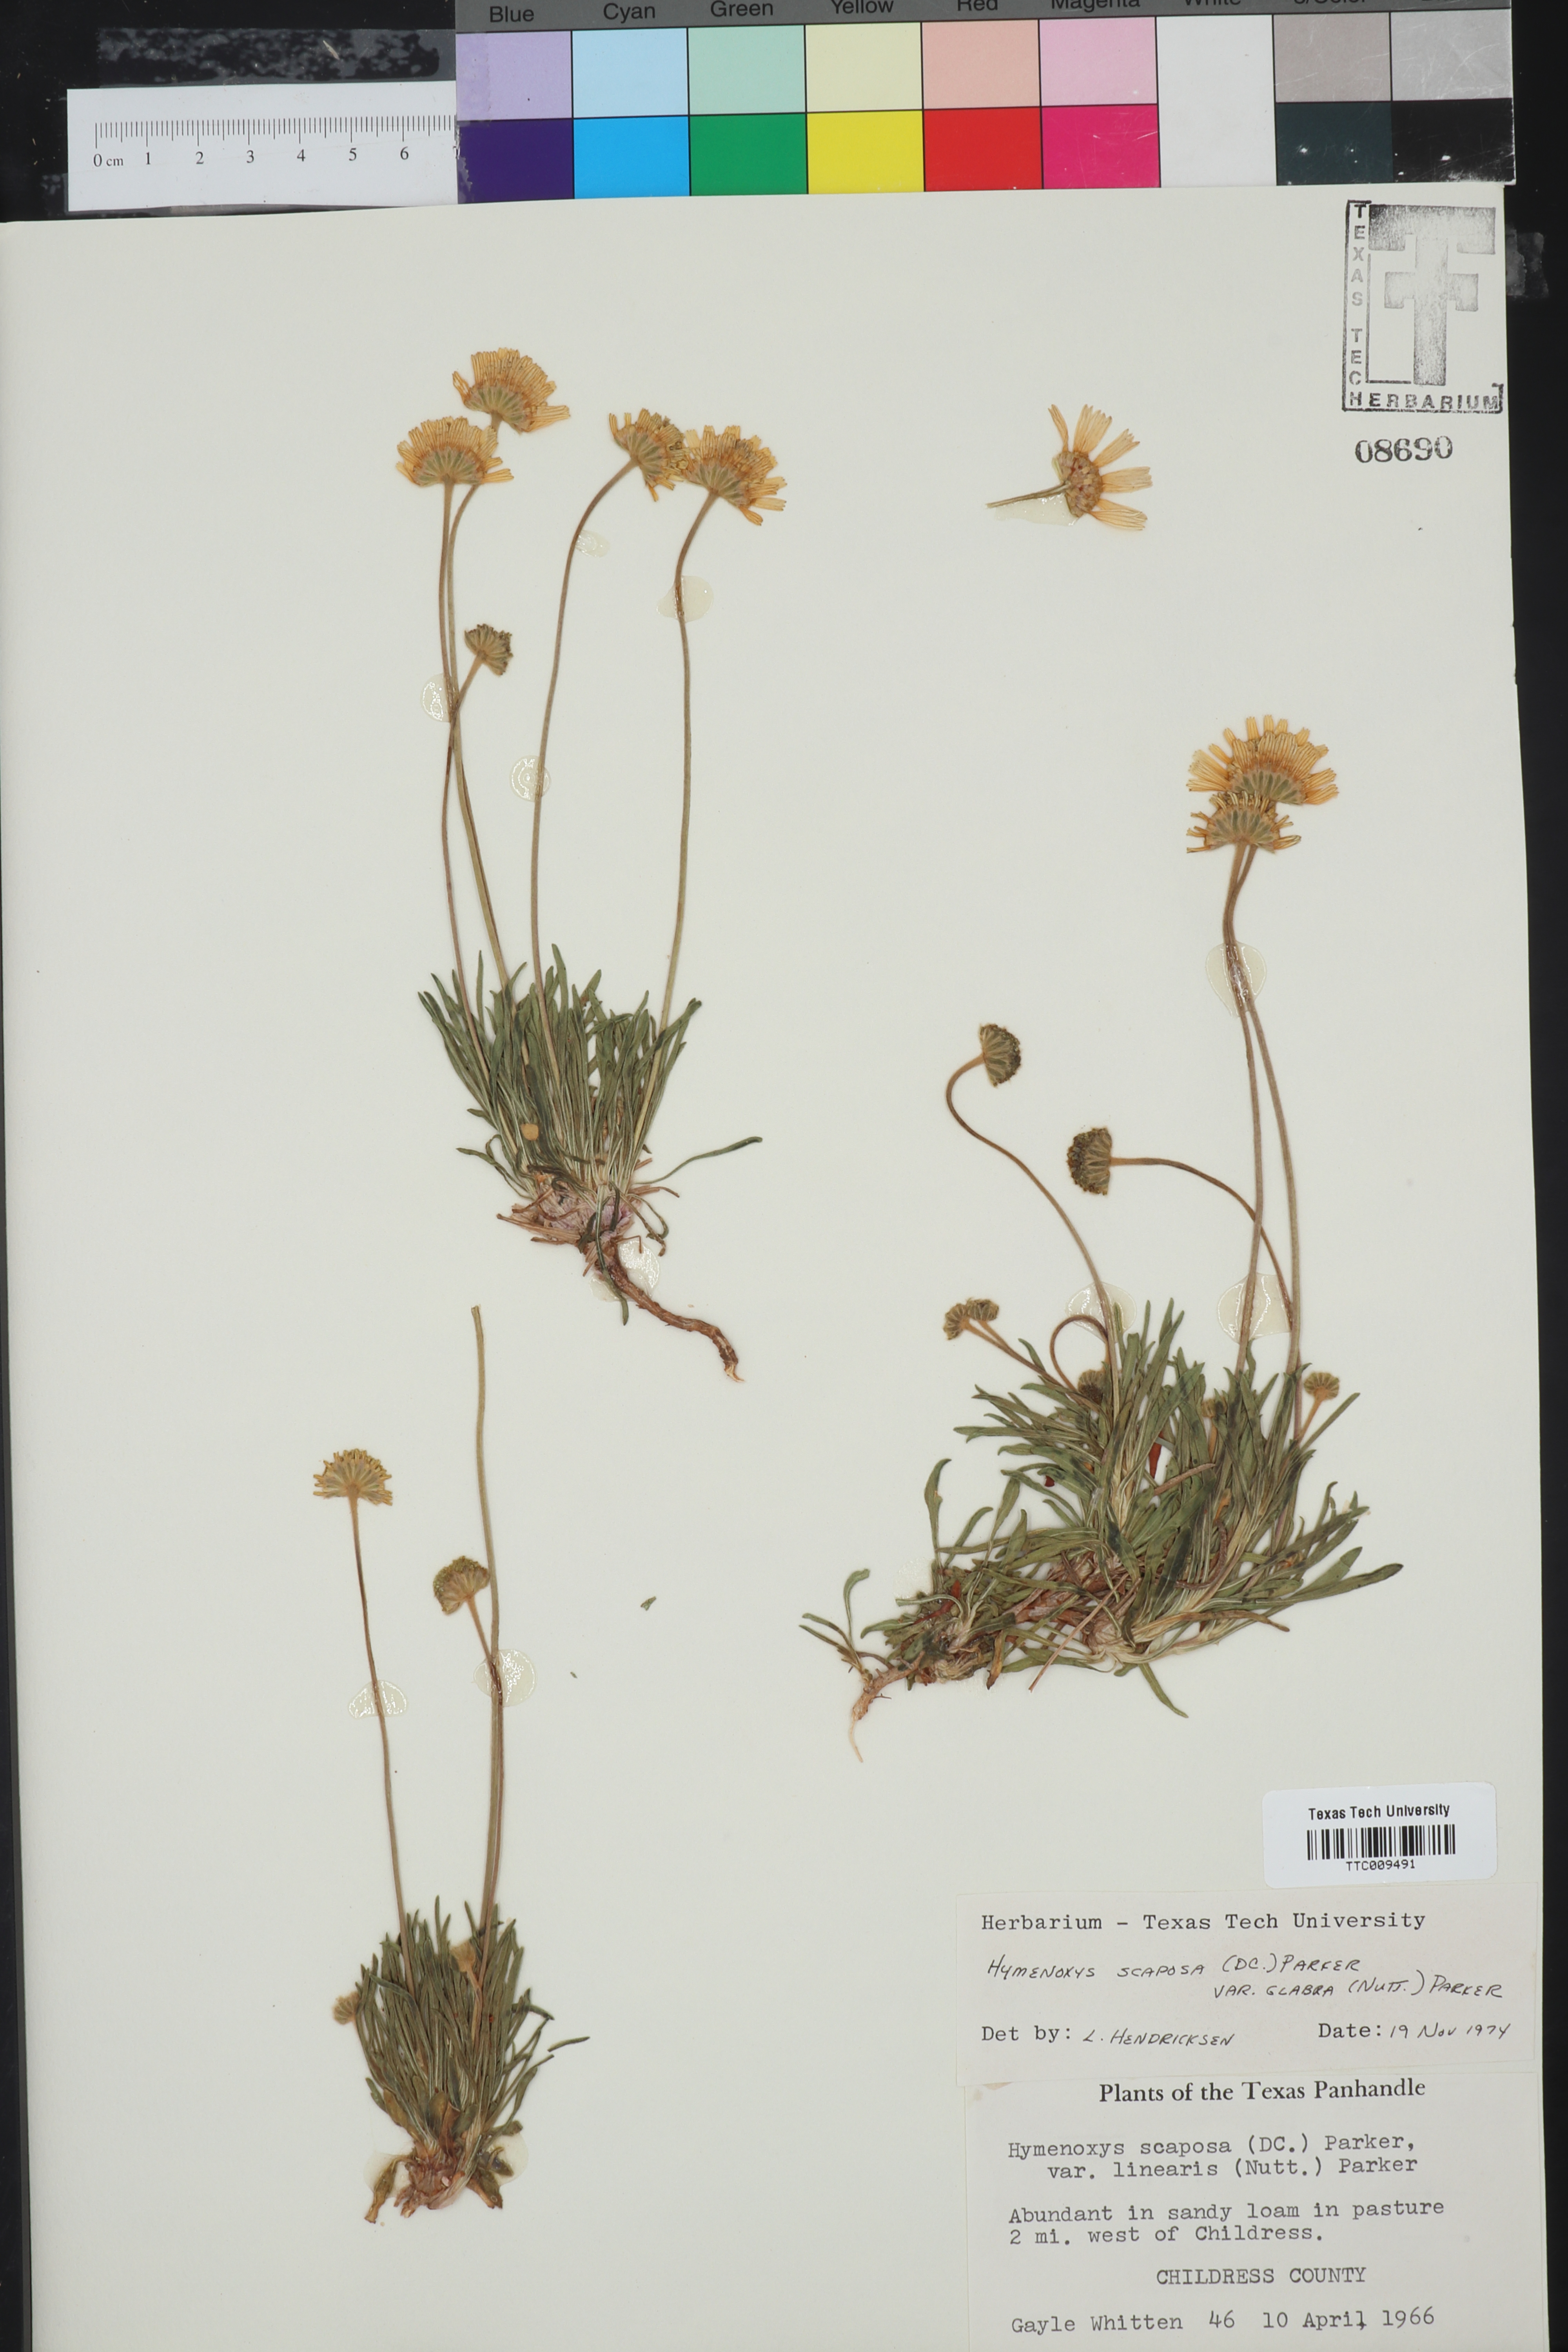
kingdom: Plantae
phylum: Tracheophyta
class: Magnoliopsida
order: Asterales
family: Asteraceae
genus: Tetraneuris
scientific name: Tetraneuris scaposa
